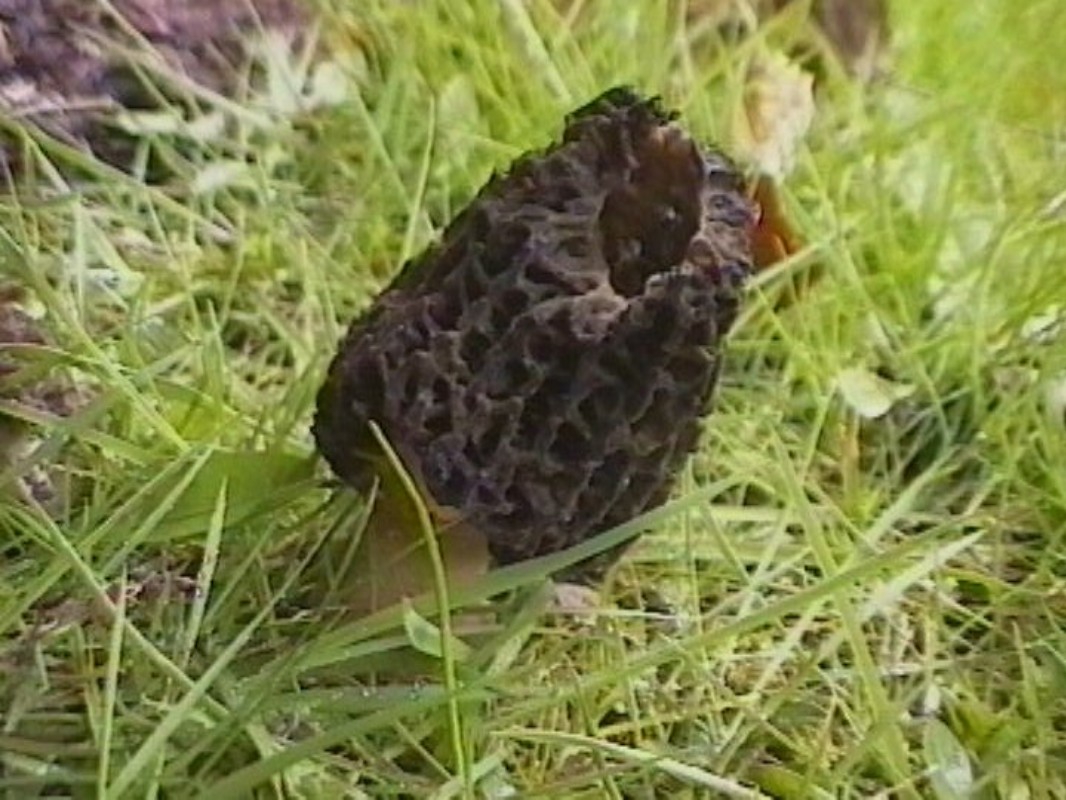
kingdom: Fungi
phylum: Ascomycota
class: Pezizomycetes
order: Pezizales
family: Morchellaceae
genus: Morchella
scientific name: Morchella importuna
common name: Landscaping black morel
